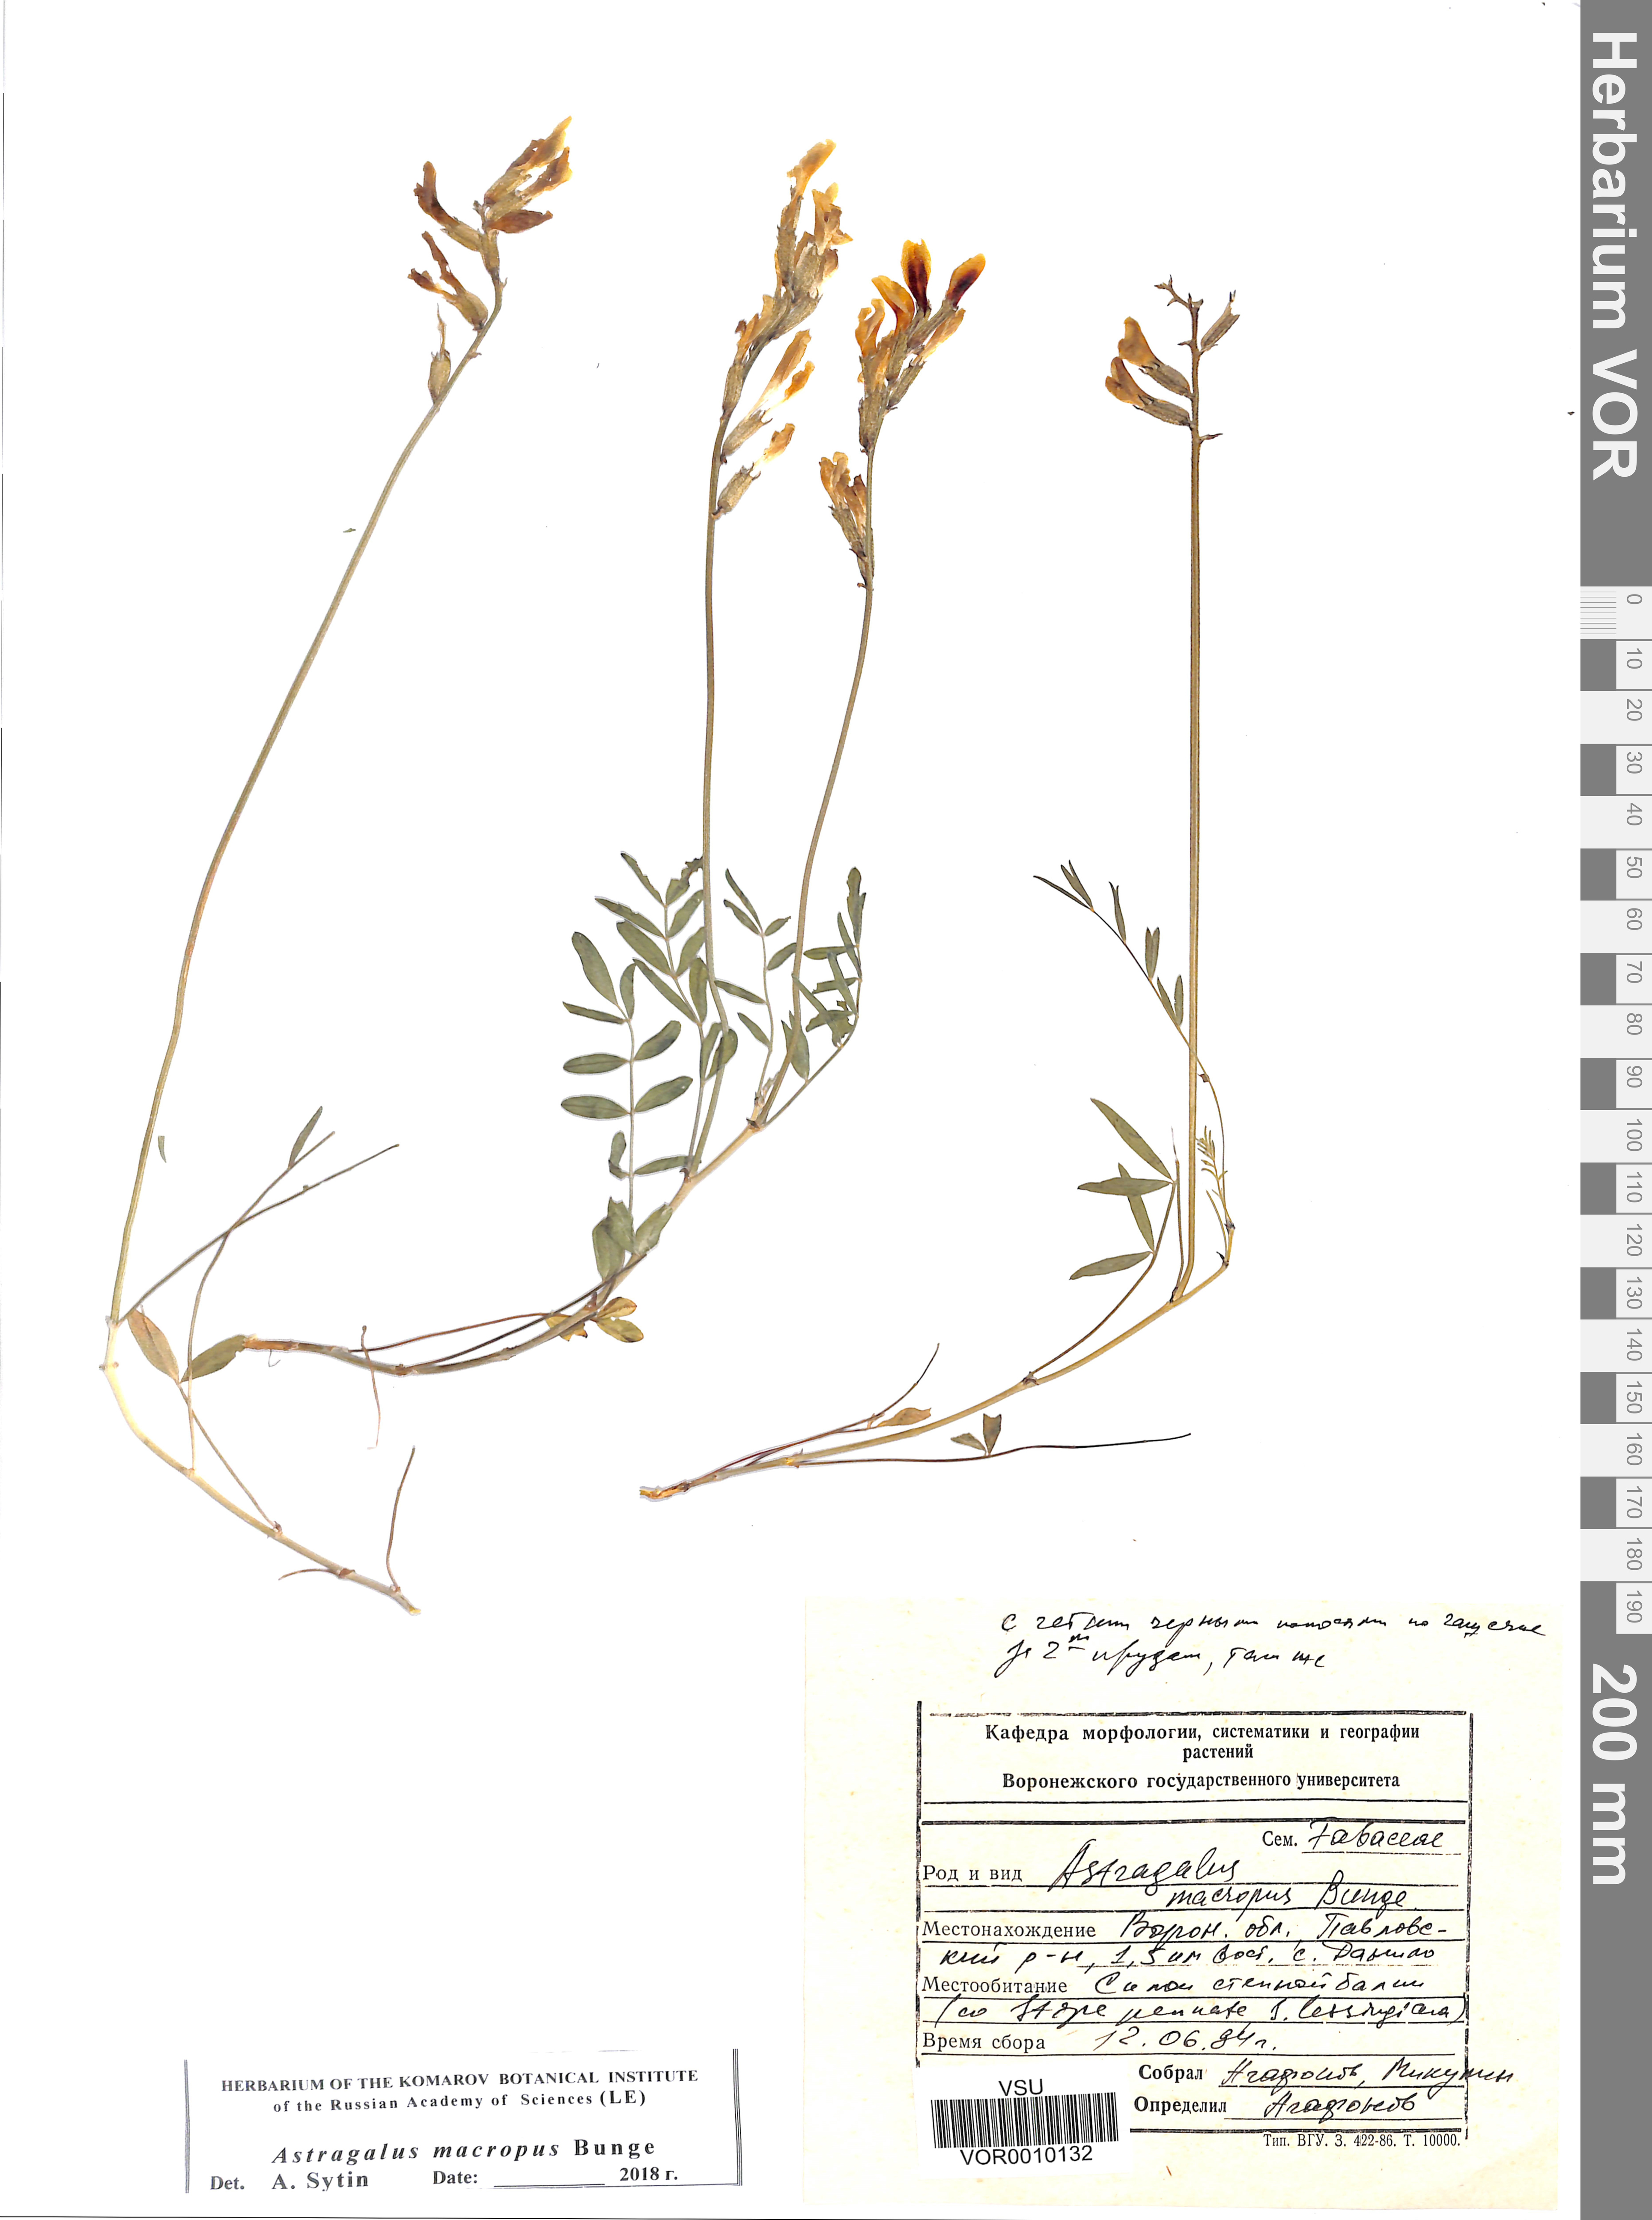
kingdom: Plantae
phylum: Tracheophyta
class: Magnoliopsida
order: Fabales
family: Fabaceae
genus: Astragalus
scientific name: Astragalus macropus
